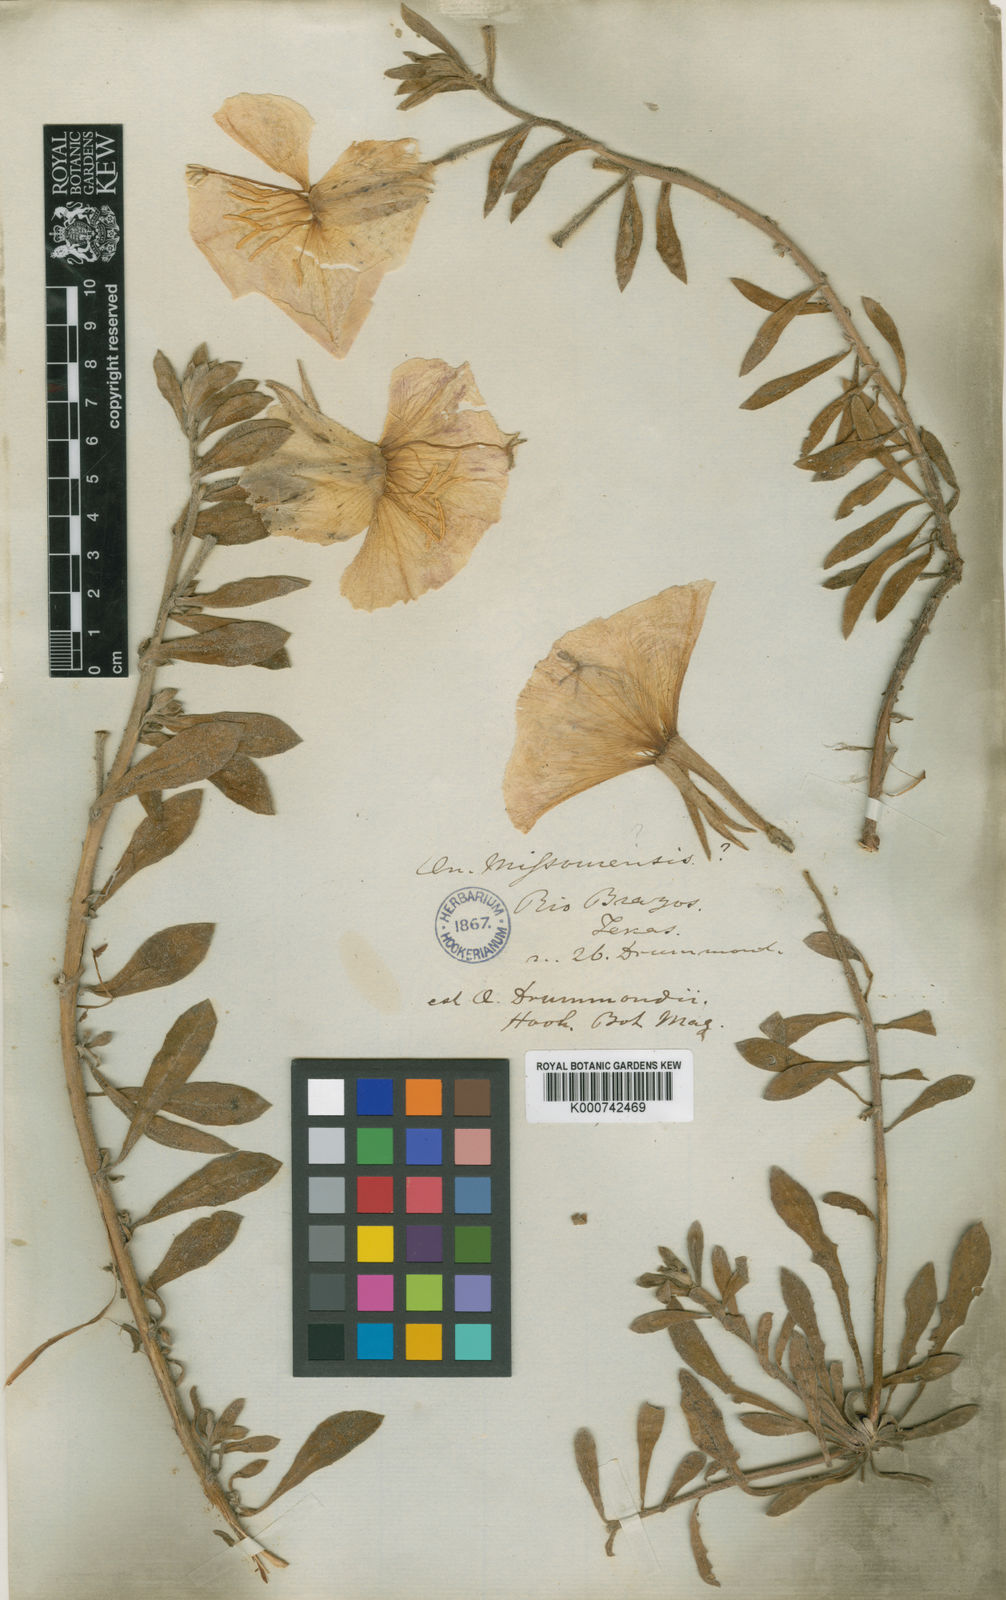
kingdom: Plantae
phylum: Tracheophyta
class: Magnoliopsida
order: Myrtales
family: Onagraceae
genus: Oenothera
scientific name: Oenothera drummondii
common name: Beach evening-primrose
